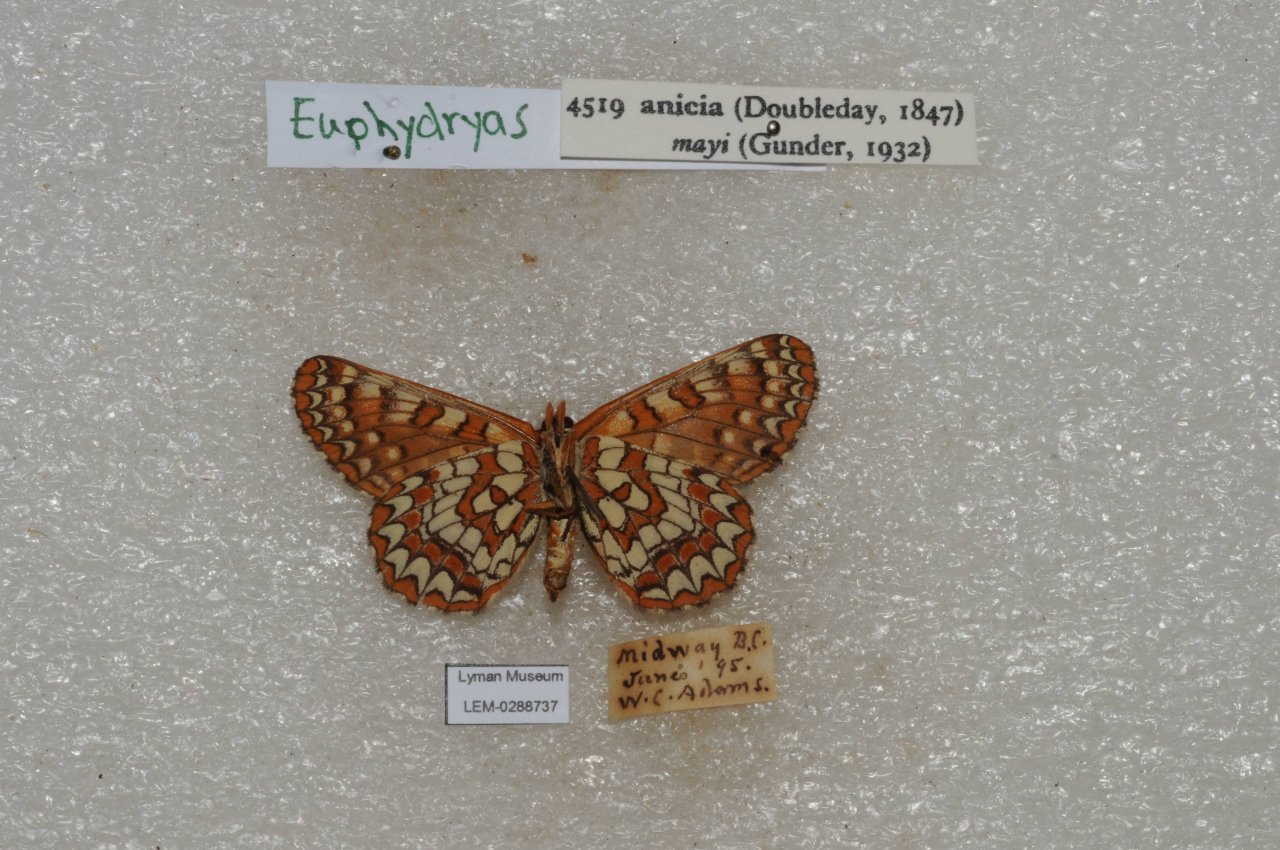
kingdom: Animalia
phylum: Arthropoda
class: Insecta
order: Lepidoptera
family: Nymphalidae
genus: Occidryas
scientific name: Occidryas anicia
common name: Anicia Checkerspot
